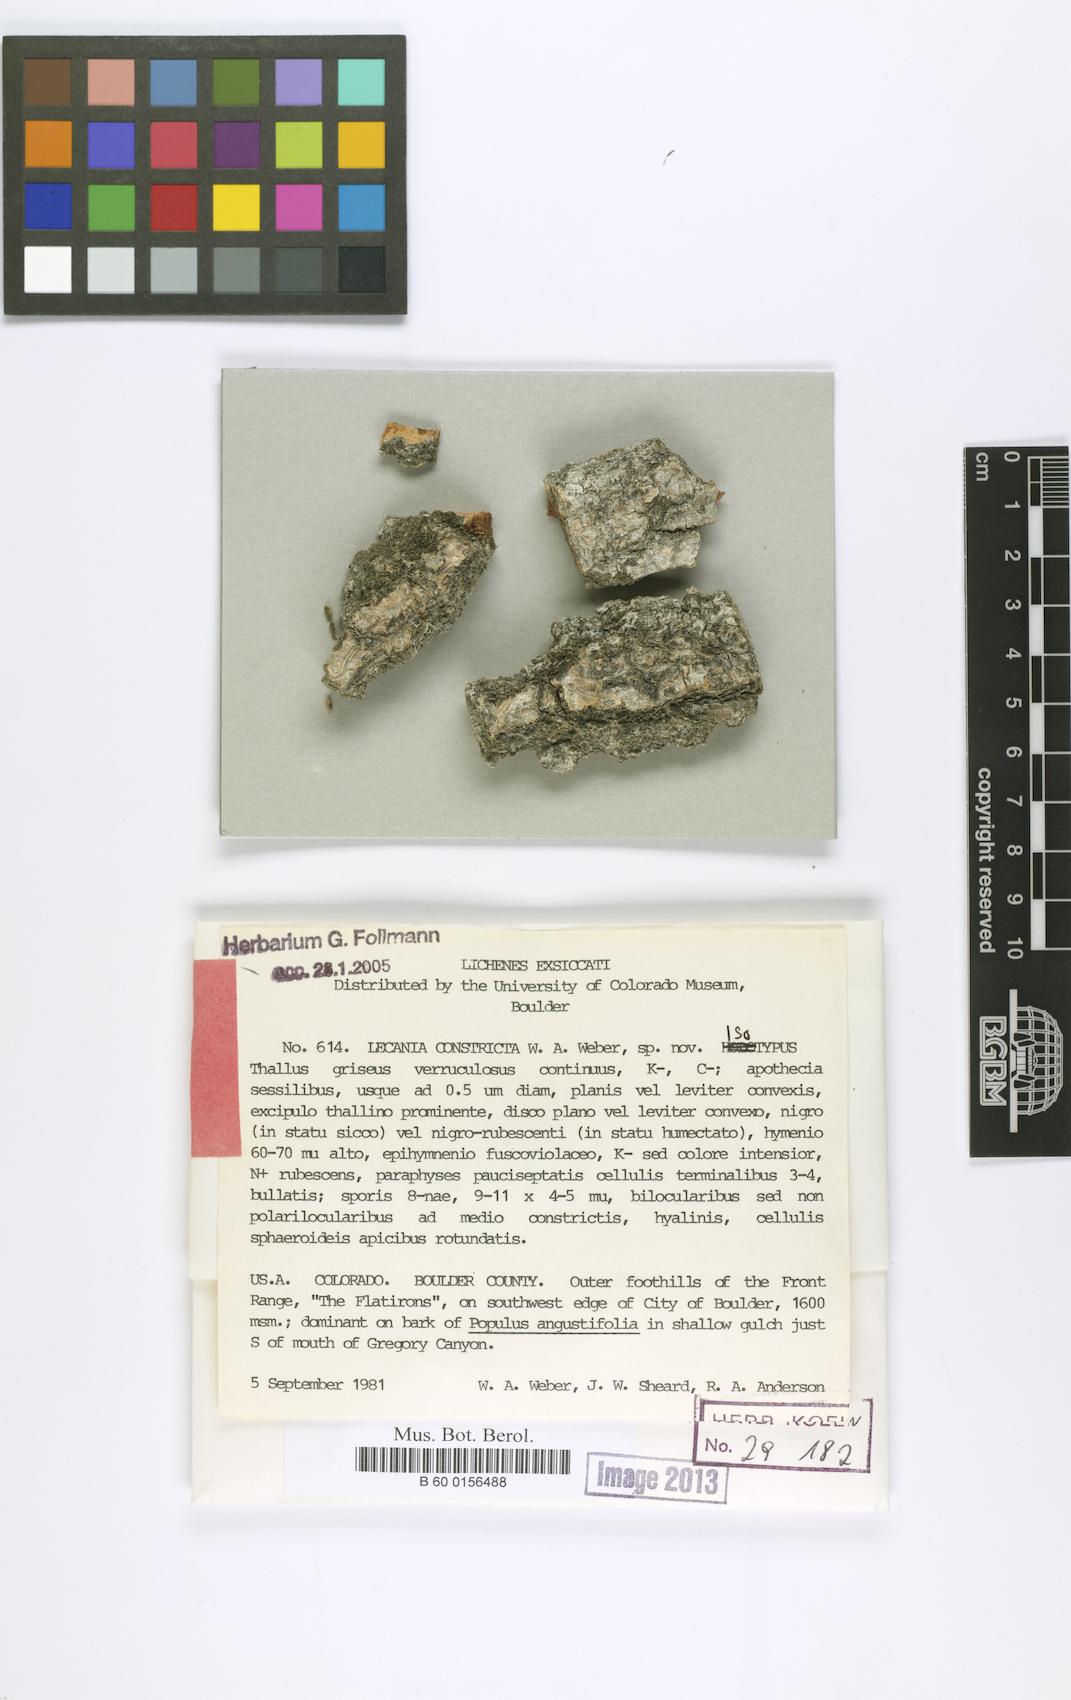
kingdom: Fungi
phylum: Ascomycota
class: Lecanoromycetes
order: Lecanorales
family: Ramalinaceae
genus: Lecania
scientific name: Lecania constricta
